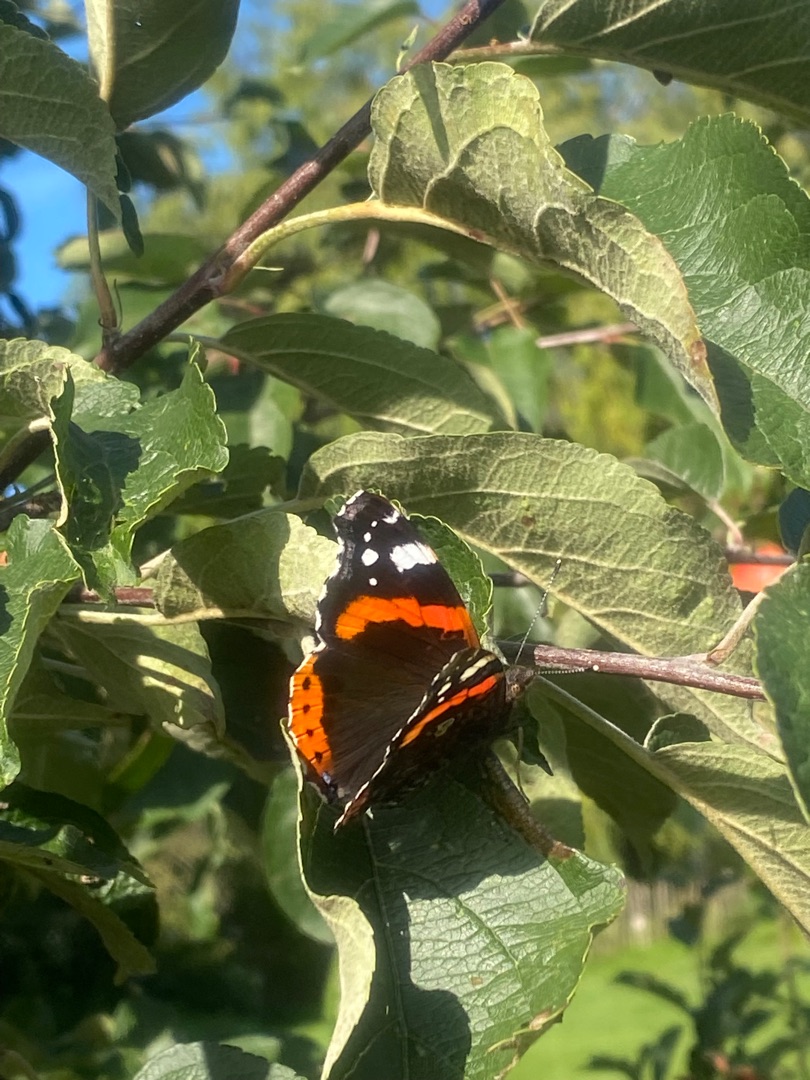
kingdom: Animalia
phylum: Arthropoda
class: Insecta
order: Lepidoptera
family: Nymphalidae
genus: Vanessa
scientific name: Vanessa atalanta
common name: Admiral
